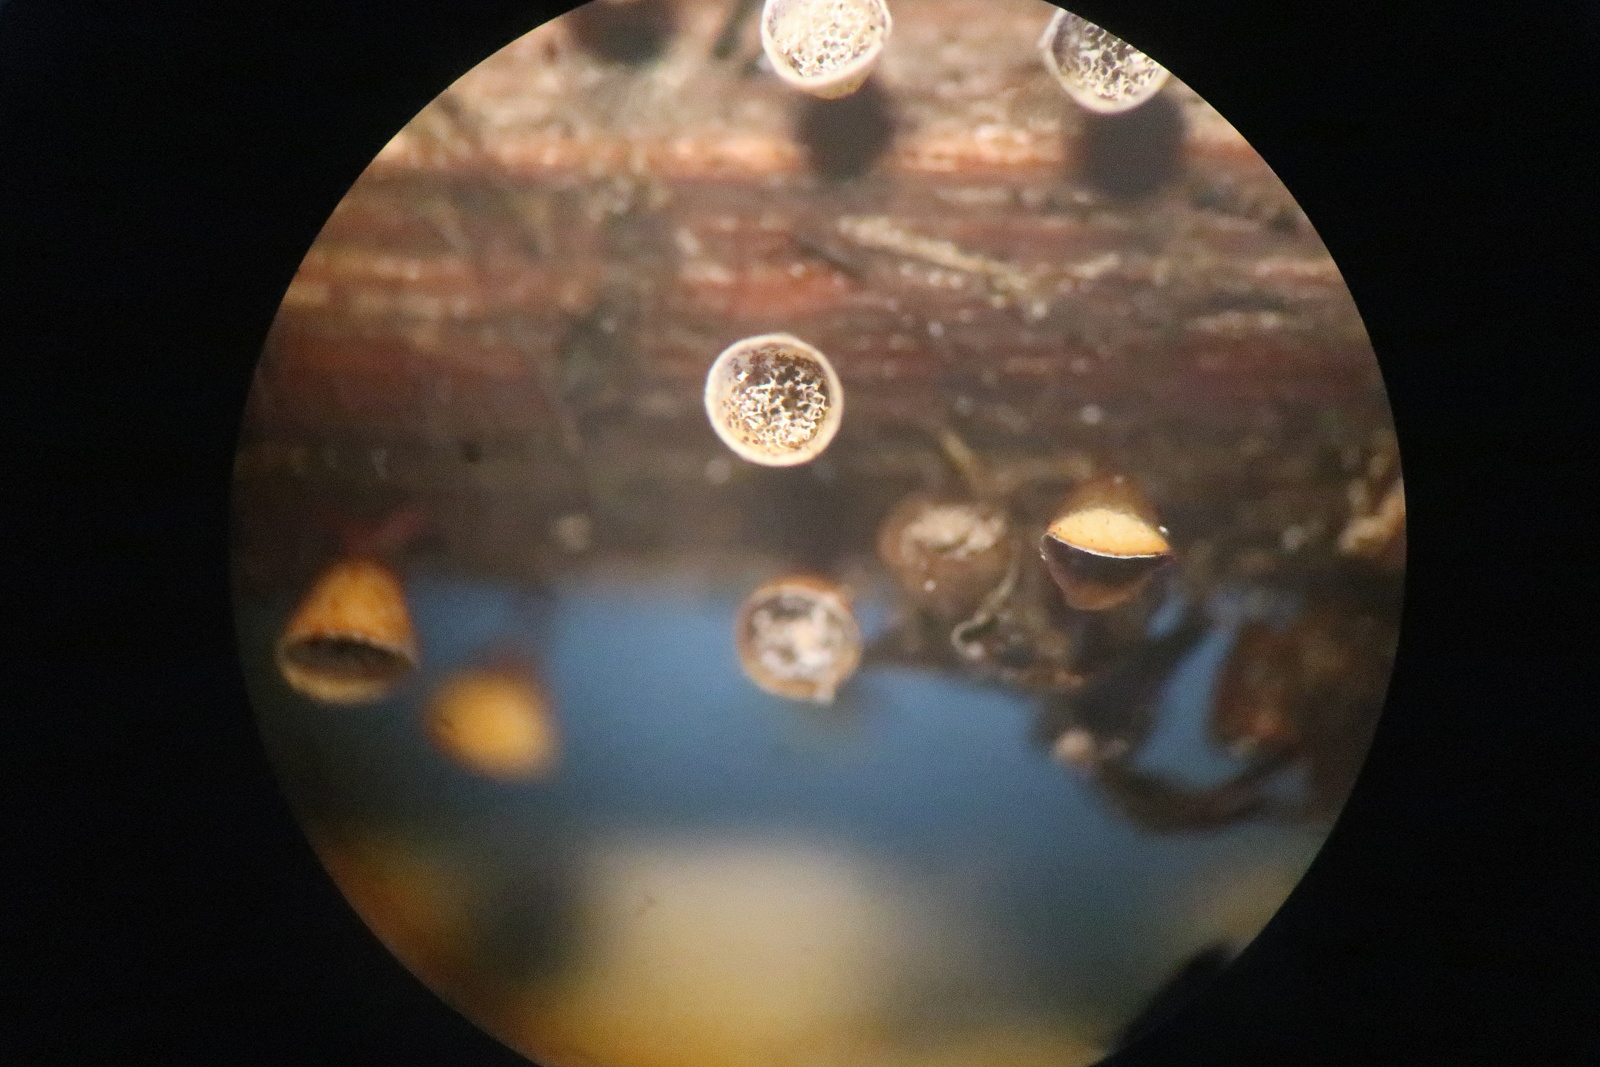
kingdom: Protozoa
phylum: Mycetozoa
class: Myxomycetes
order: Physarales
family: Physaraceae
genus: Craterium
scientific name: Craterium minutum
